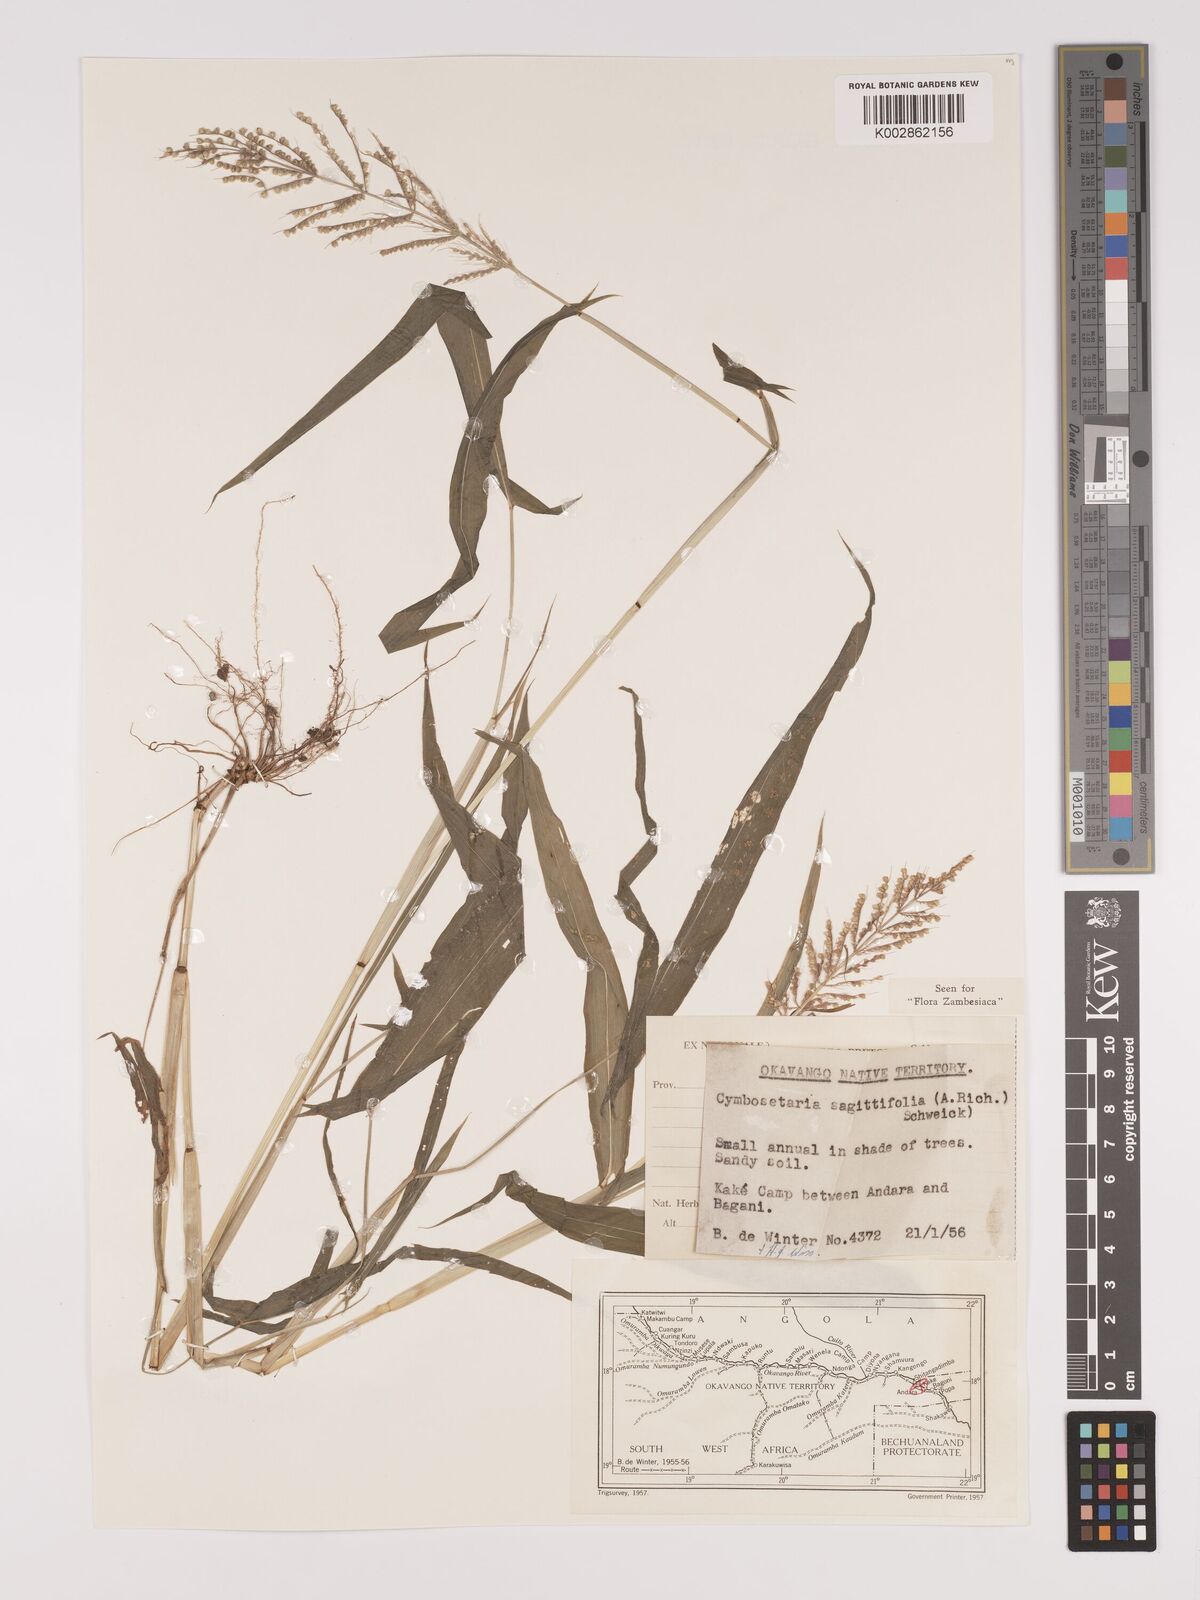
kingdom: Plantae
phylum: Tracheophyta
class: Liliopsida
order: Poales
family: Poaceae
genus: Setaria
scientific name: Setaria sagittifolia
